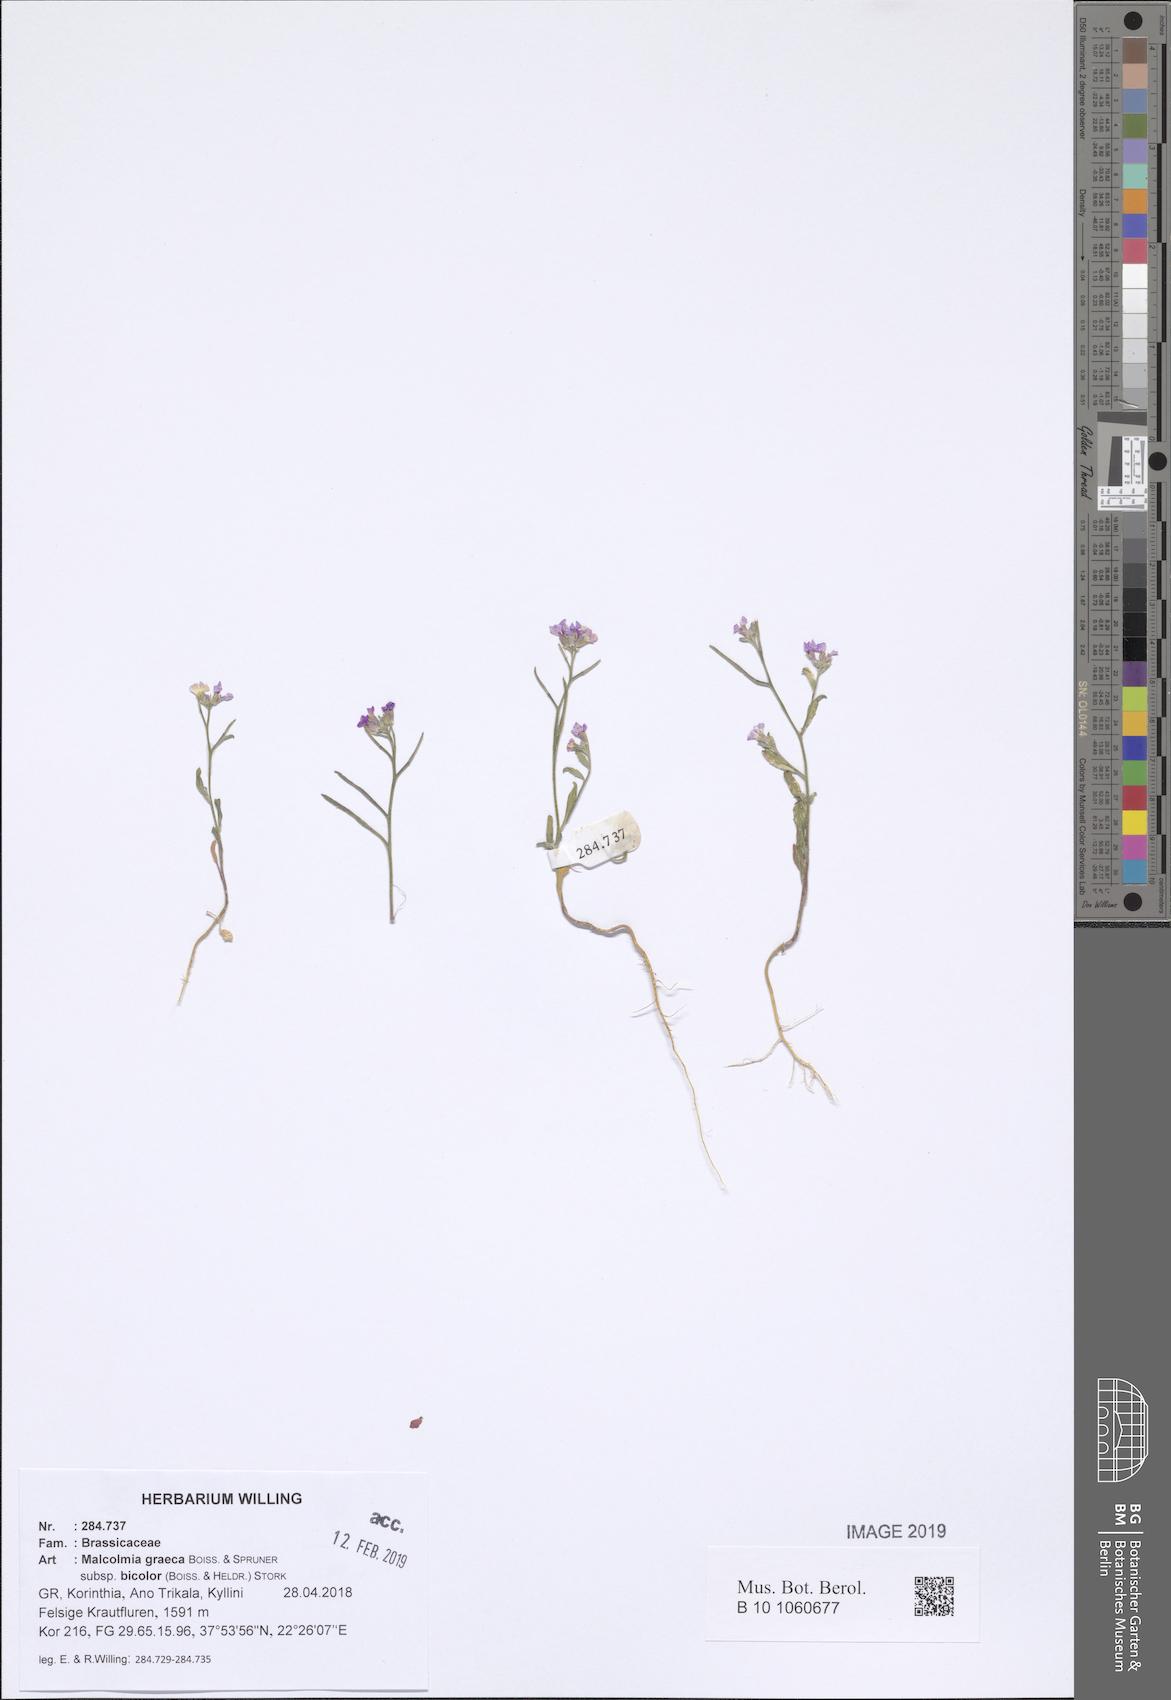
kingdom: Plantae
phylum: Tracheophyta
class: Magnoliopsida
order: Brassicales
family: Brassicaceae
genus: Malcolmia
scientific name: Malcolmia graeca
